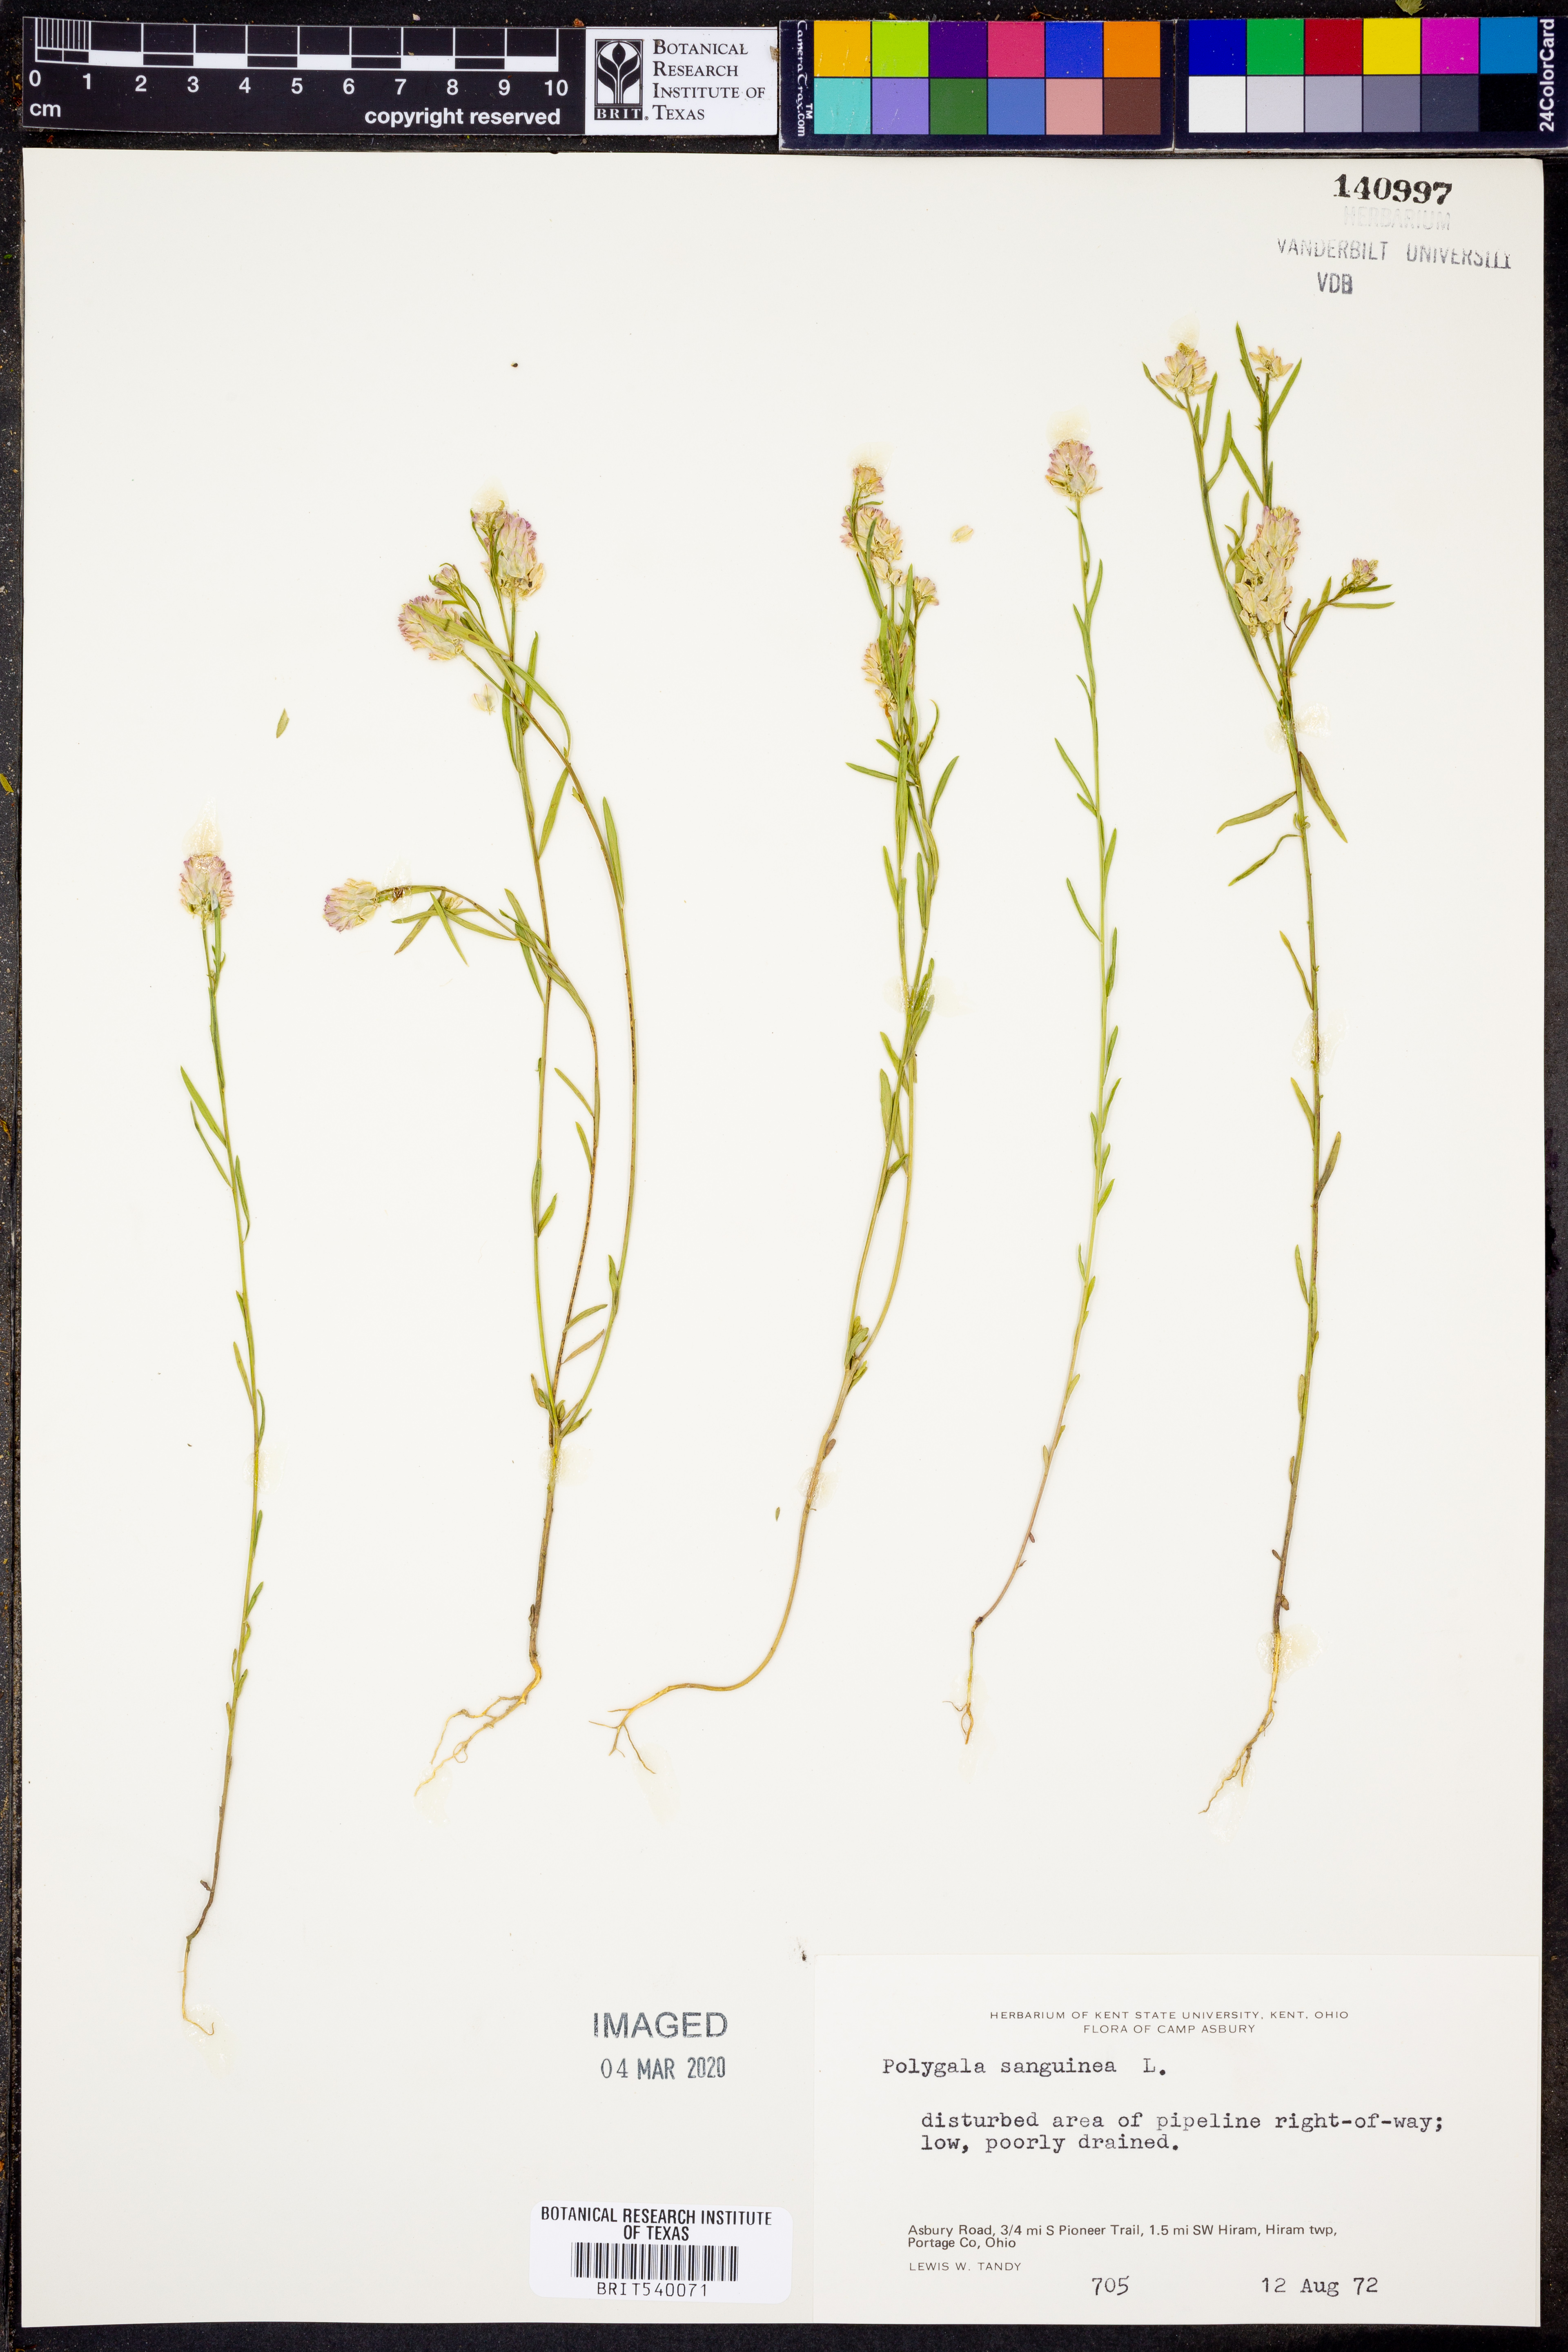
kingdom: Plantae
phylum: Tracheophyta
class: Magnoliopsida
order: Fabales
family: Polygalaceae
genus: Polygala
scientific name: Polygala sanguinea
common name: Blood milkwort
